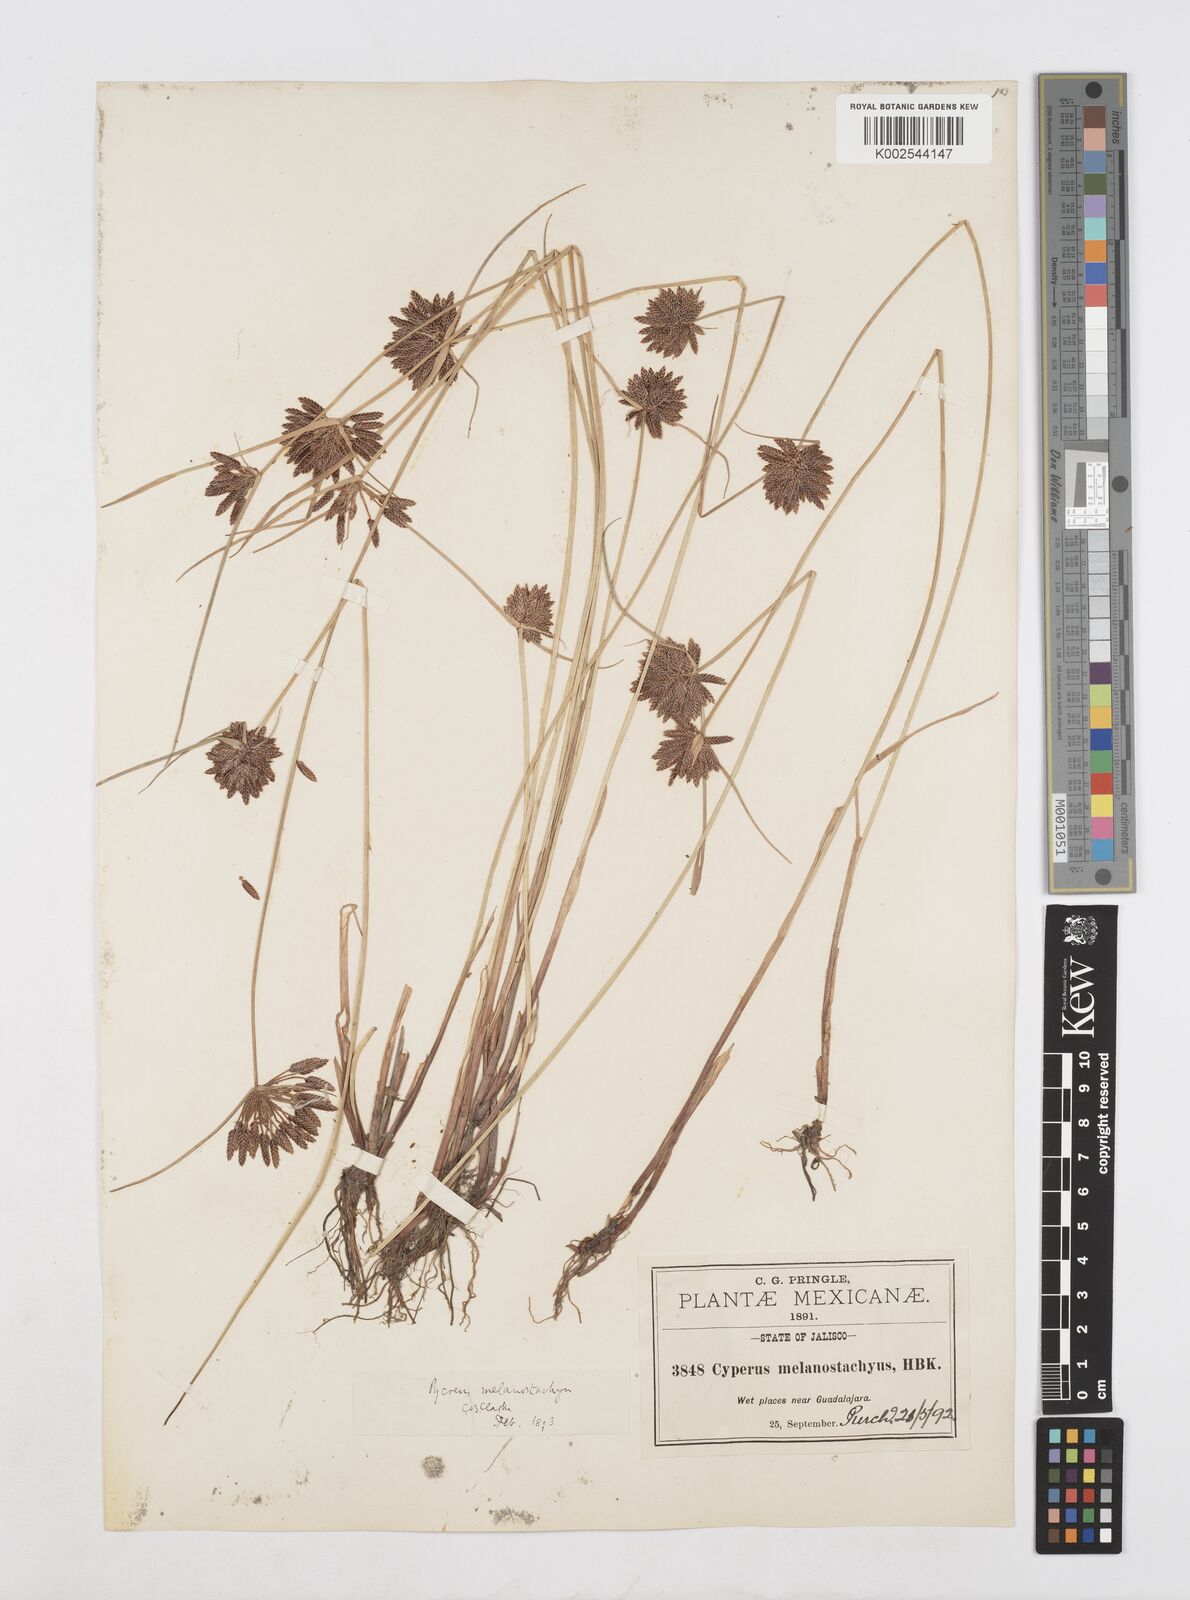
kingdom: Plantae
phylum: Tracheophyta
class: Liliopsida
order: Poales
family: Cyperaceae
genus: Cyperus
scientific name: Cyperus melanostachyus
